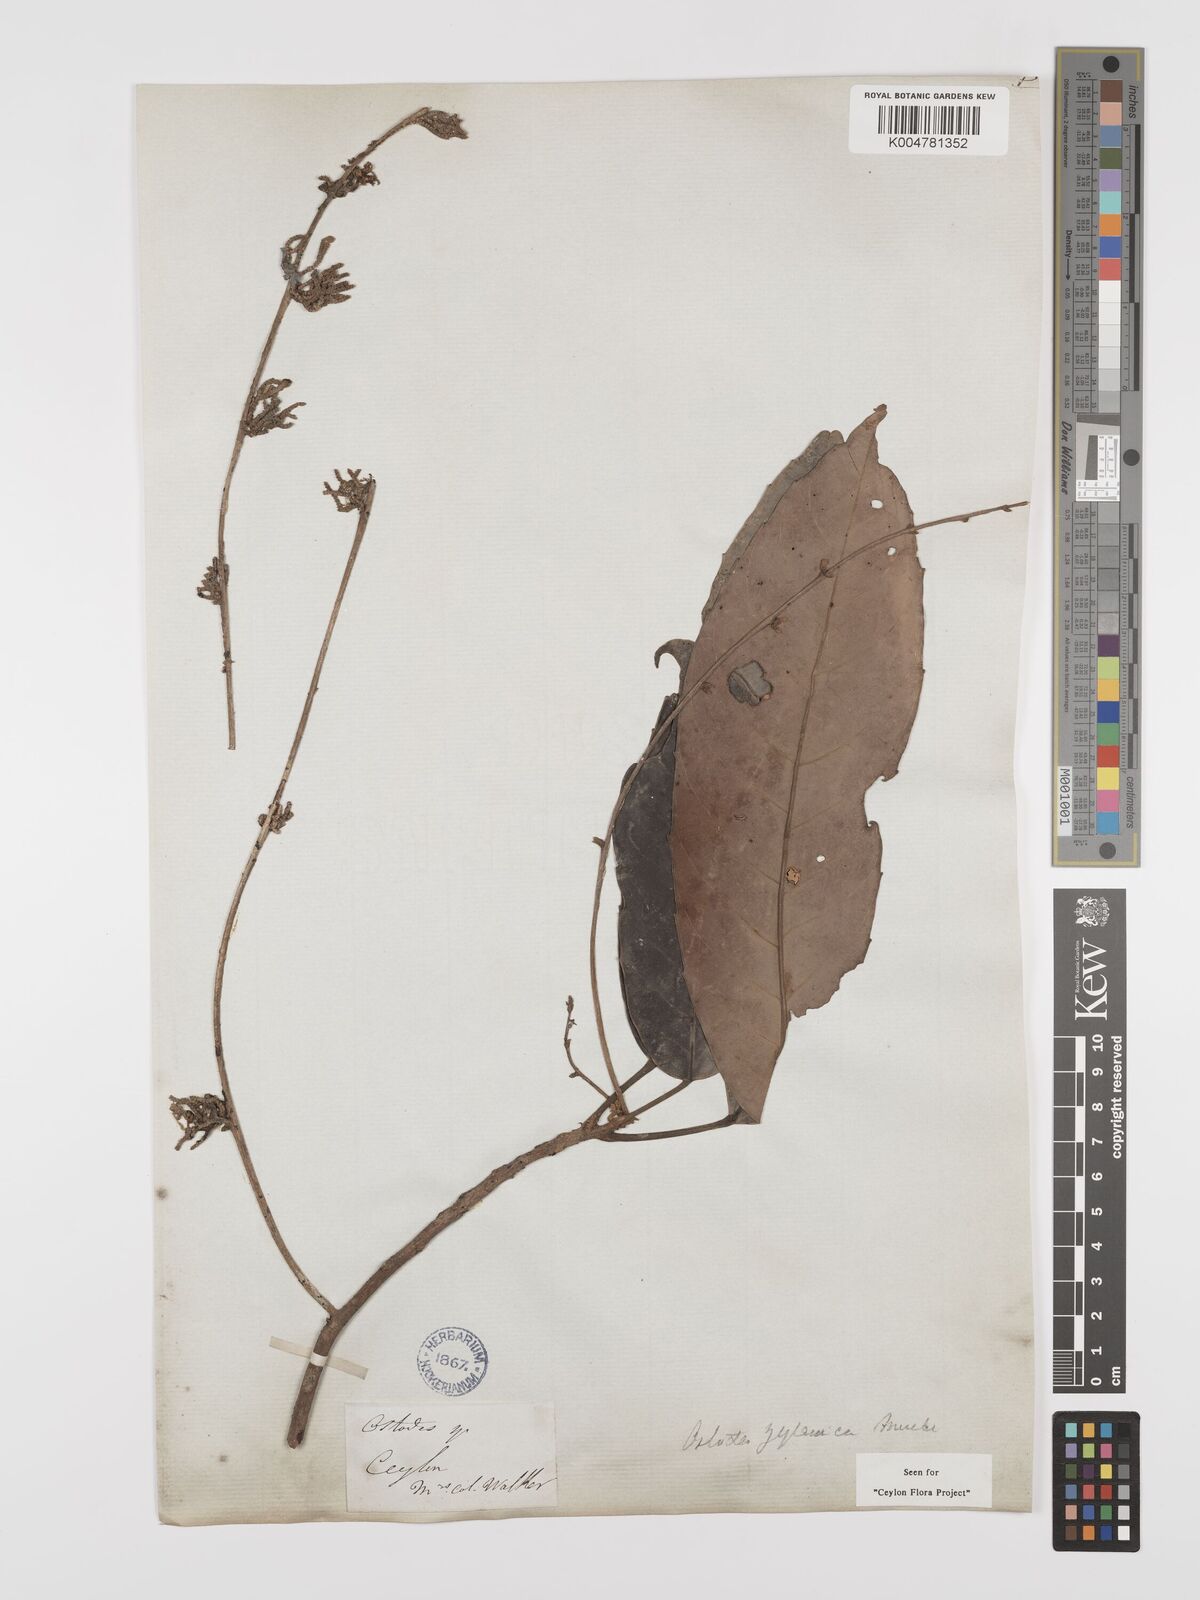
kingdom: Plantae
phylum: Tracheophyta
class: Magnoliopsida
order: Malpighiales
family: Euphorbiaceae
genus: Paracroton
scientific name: Paracroton zeylanicus
